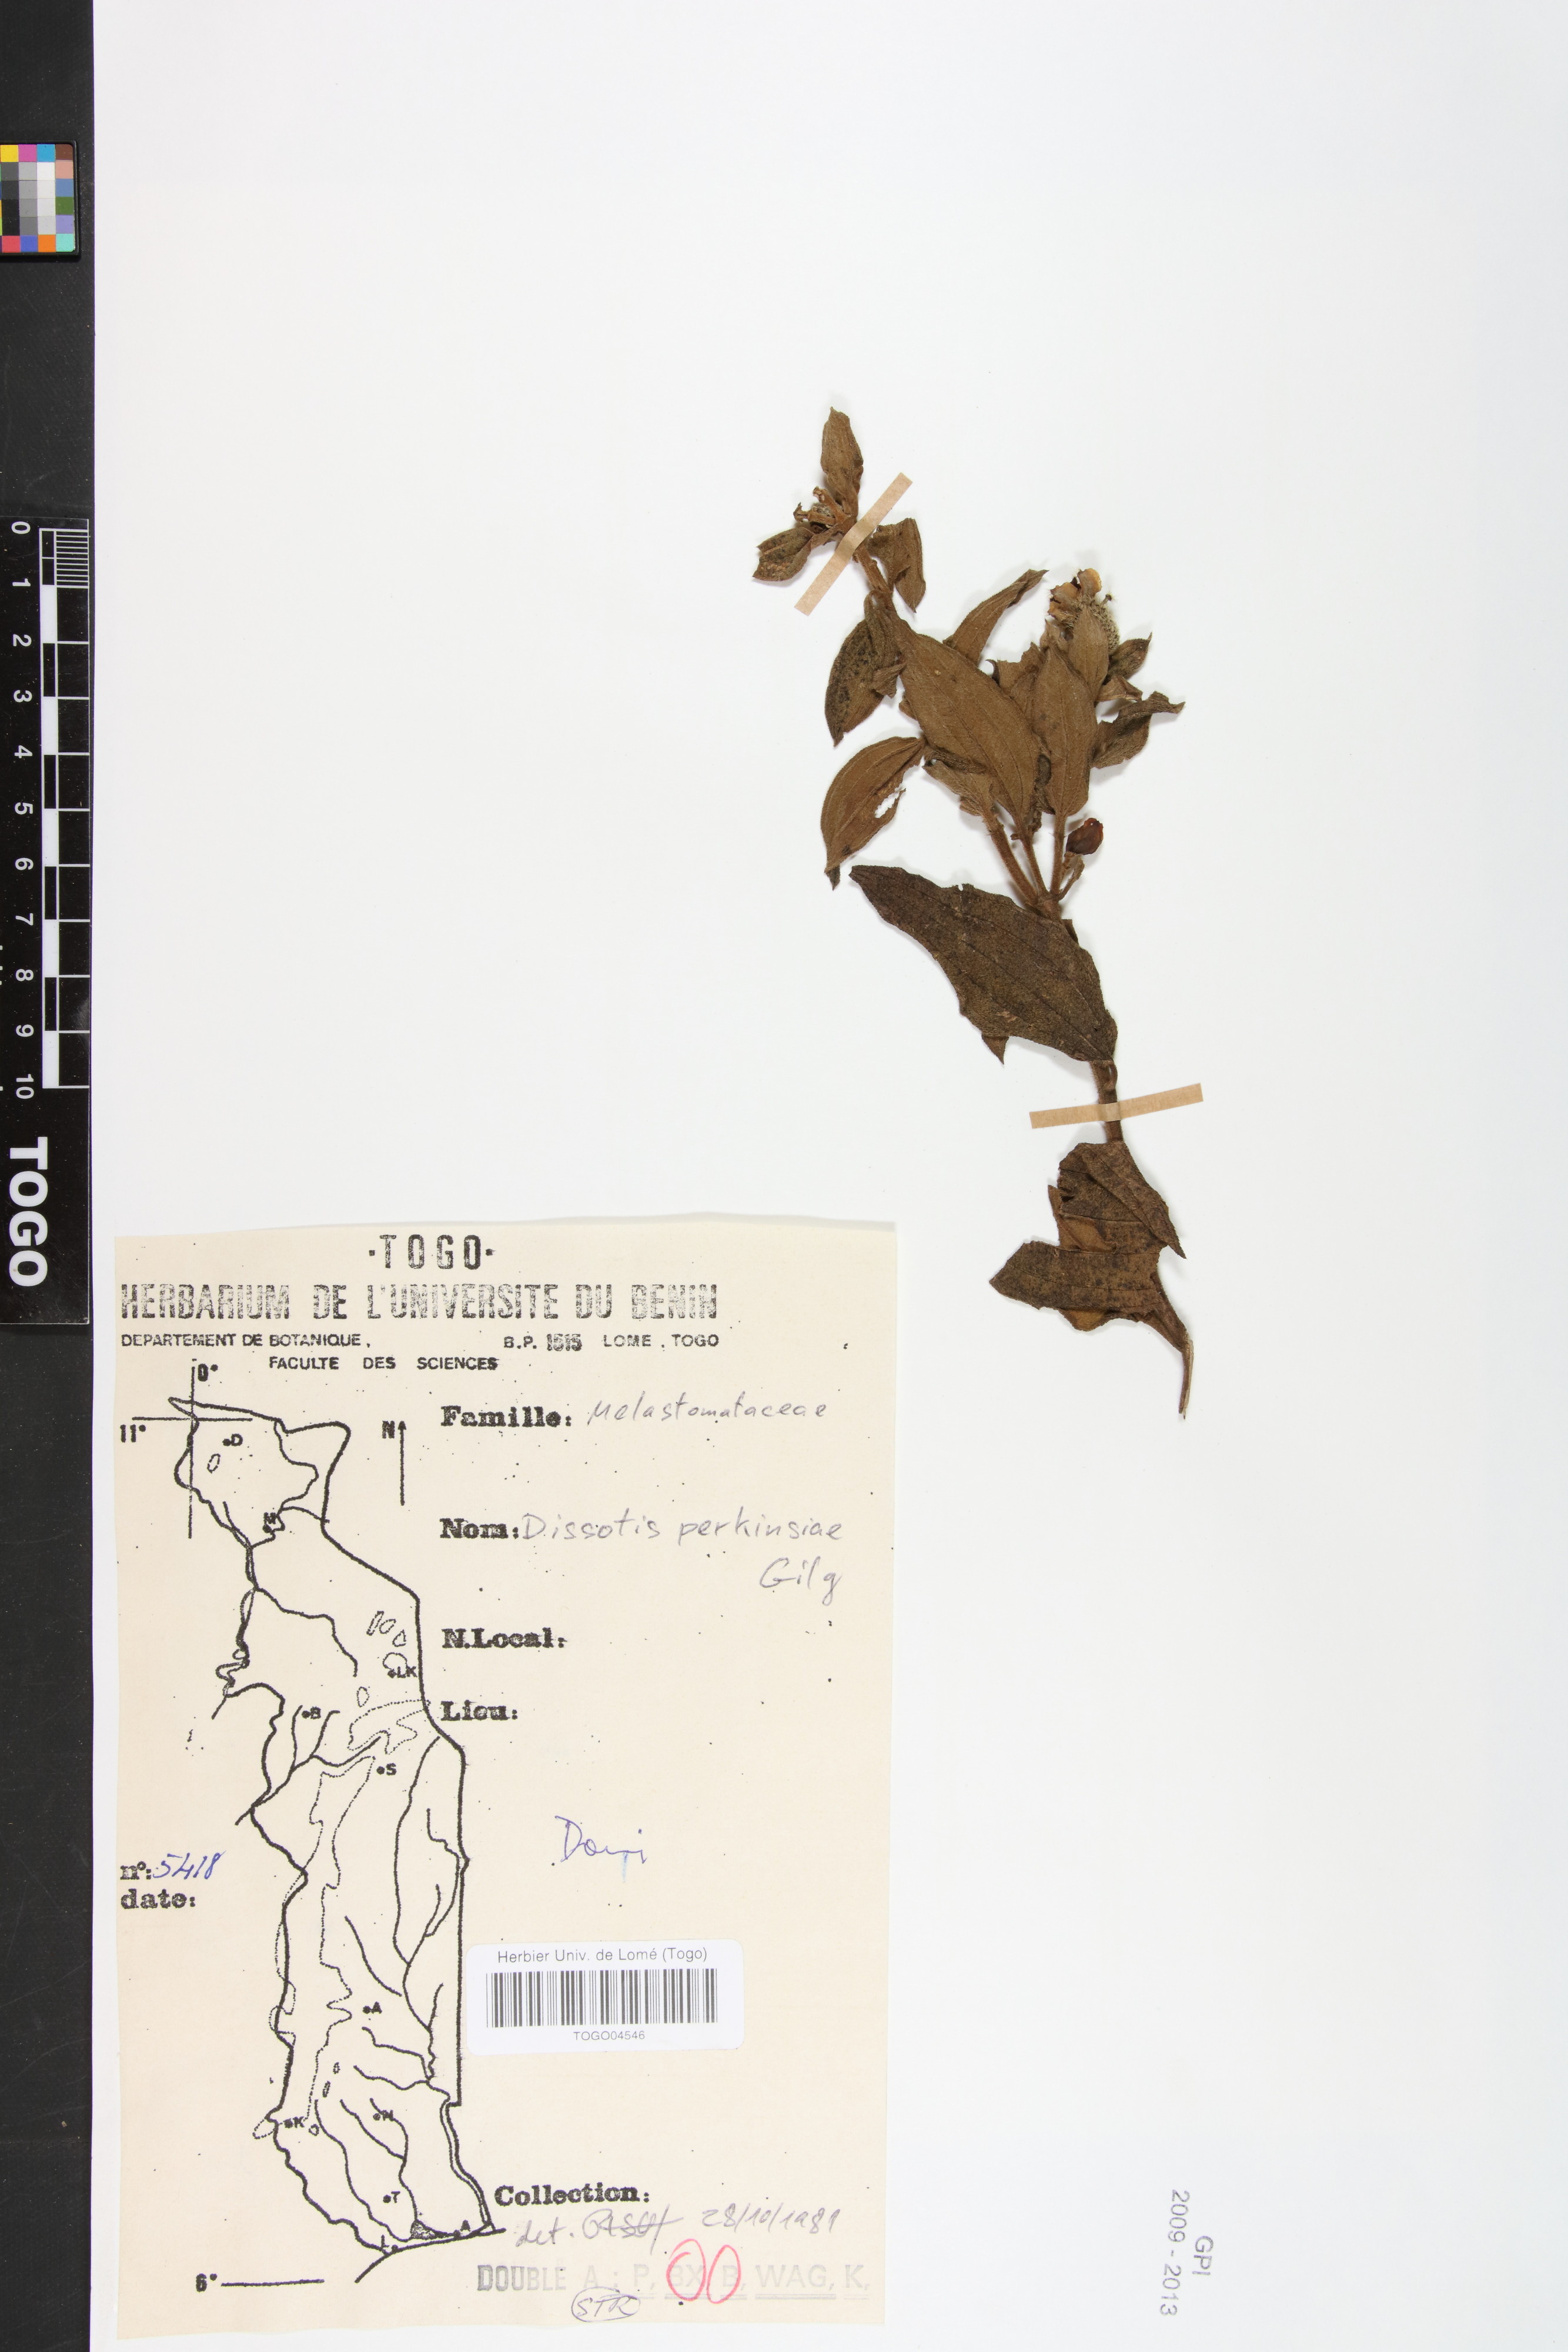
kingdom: Plantae
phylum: Tracheophyta
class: Magnoliopsida
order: Myrtales
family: Melastomataceae
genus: Feliciotis
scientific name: Feliciotis perkinsiae
